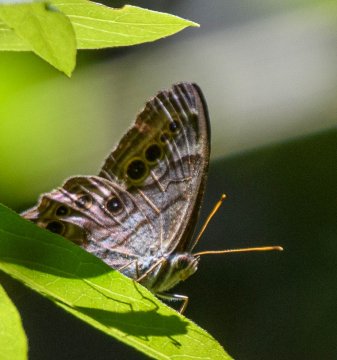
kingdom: Animalia
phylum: Arthropoda
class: Insecta
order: Lepidoptera
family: Nymphalidae
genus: Lethe
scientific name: Lethe anthedon
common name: Northern Pearly-Eye
